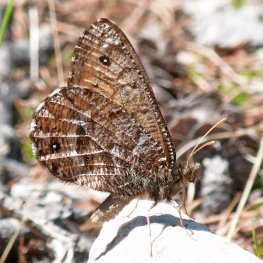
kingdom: Animalia
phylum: Arthropoda
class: Insecta
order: Lepidoptera
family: Nymphalidae
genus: Oeneis
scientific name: Oeneis chryxus
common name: Chryxus Arctic
